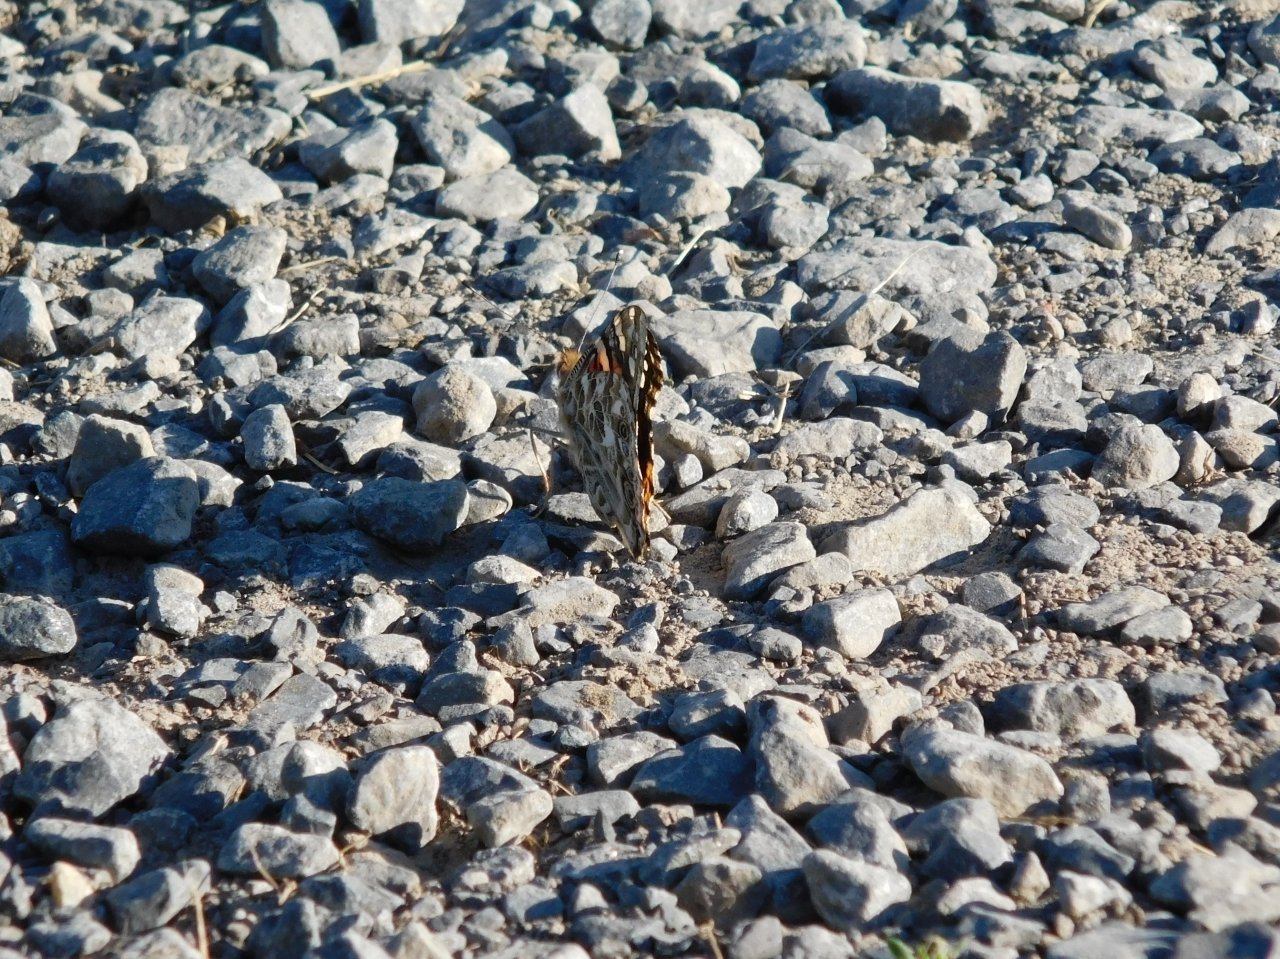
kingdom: Animalia
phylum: Arthropoda
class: Insecta
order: Lepidoptera
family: Nymphalidae
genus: Vanessa
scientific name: Vanessa cardui
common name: Painted Lady
